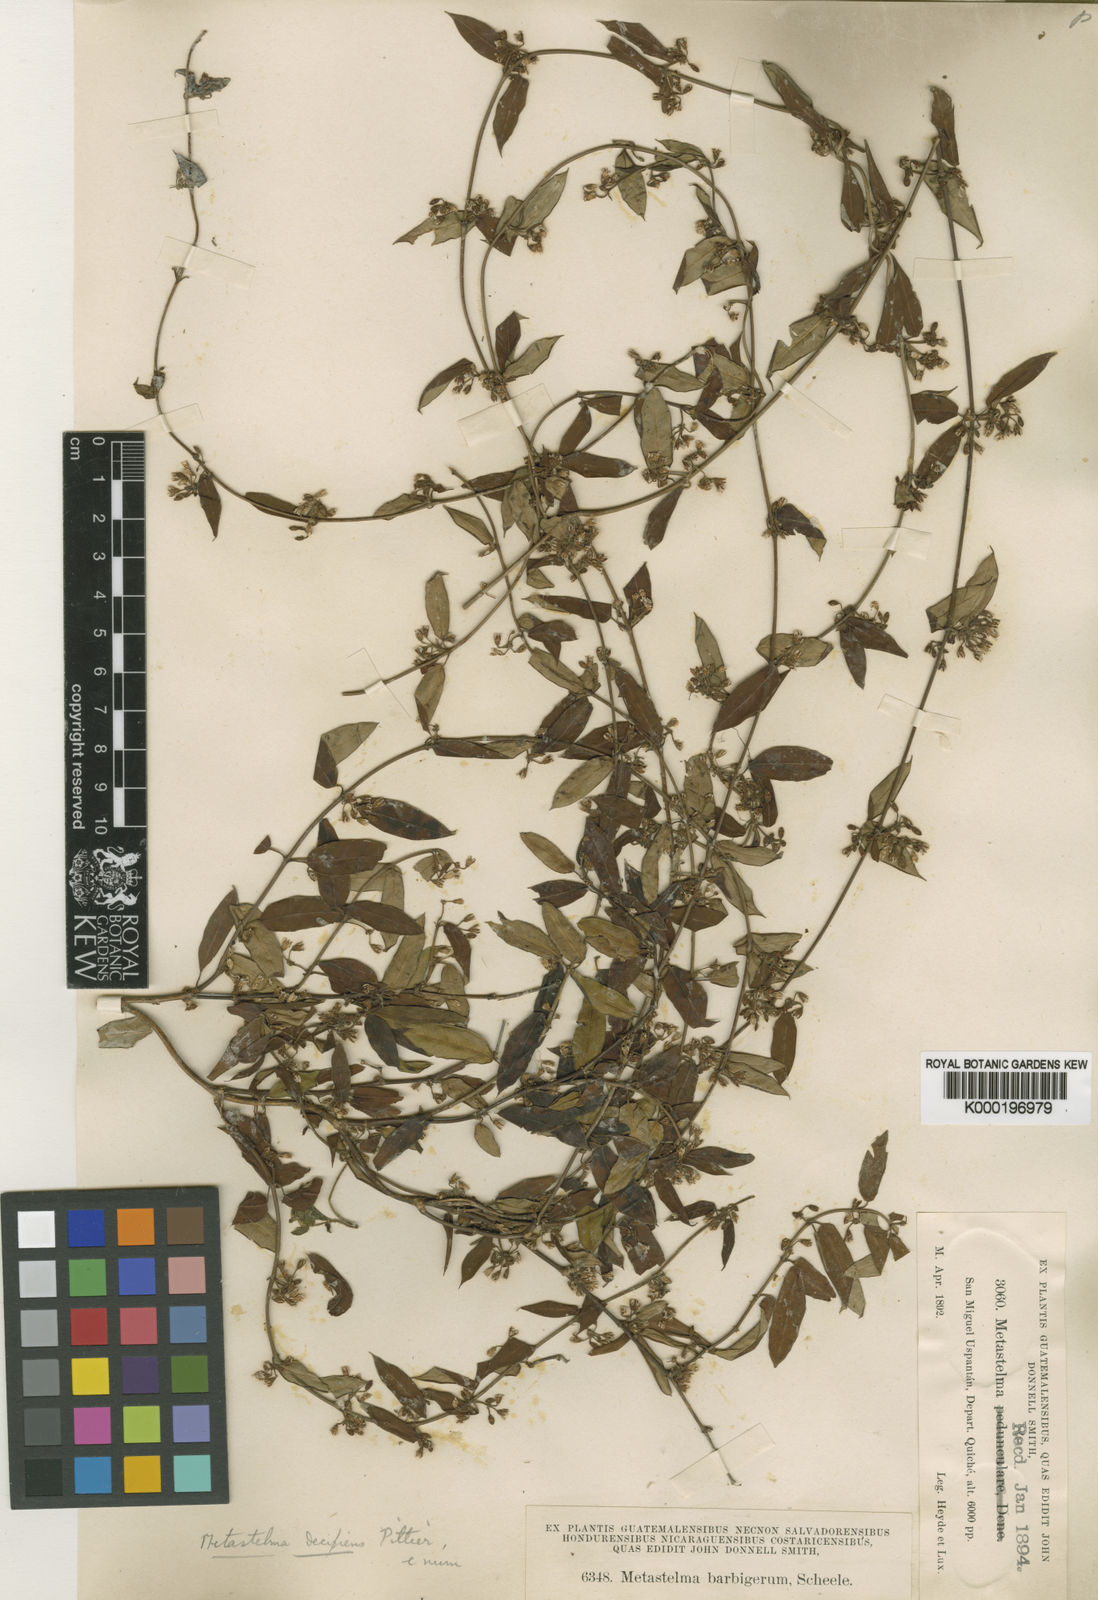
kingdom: Plantae
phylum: Tracheophyta
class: Magnoliopsida
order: Gentianales
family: Apocynaceae
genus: Metastelma
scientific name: Metastelma schlechtendalii
